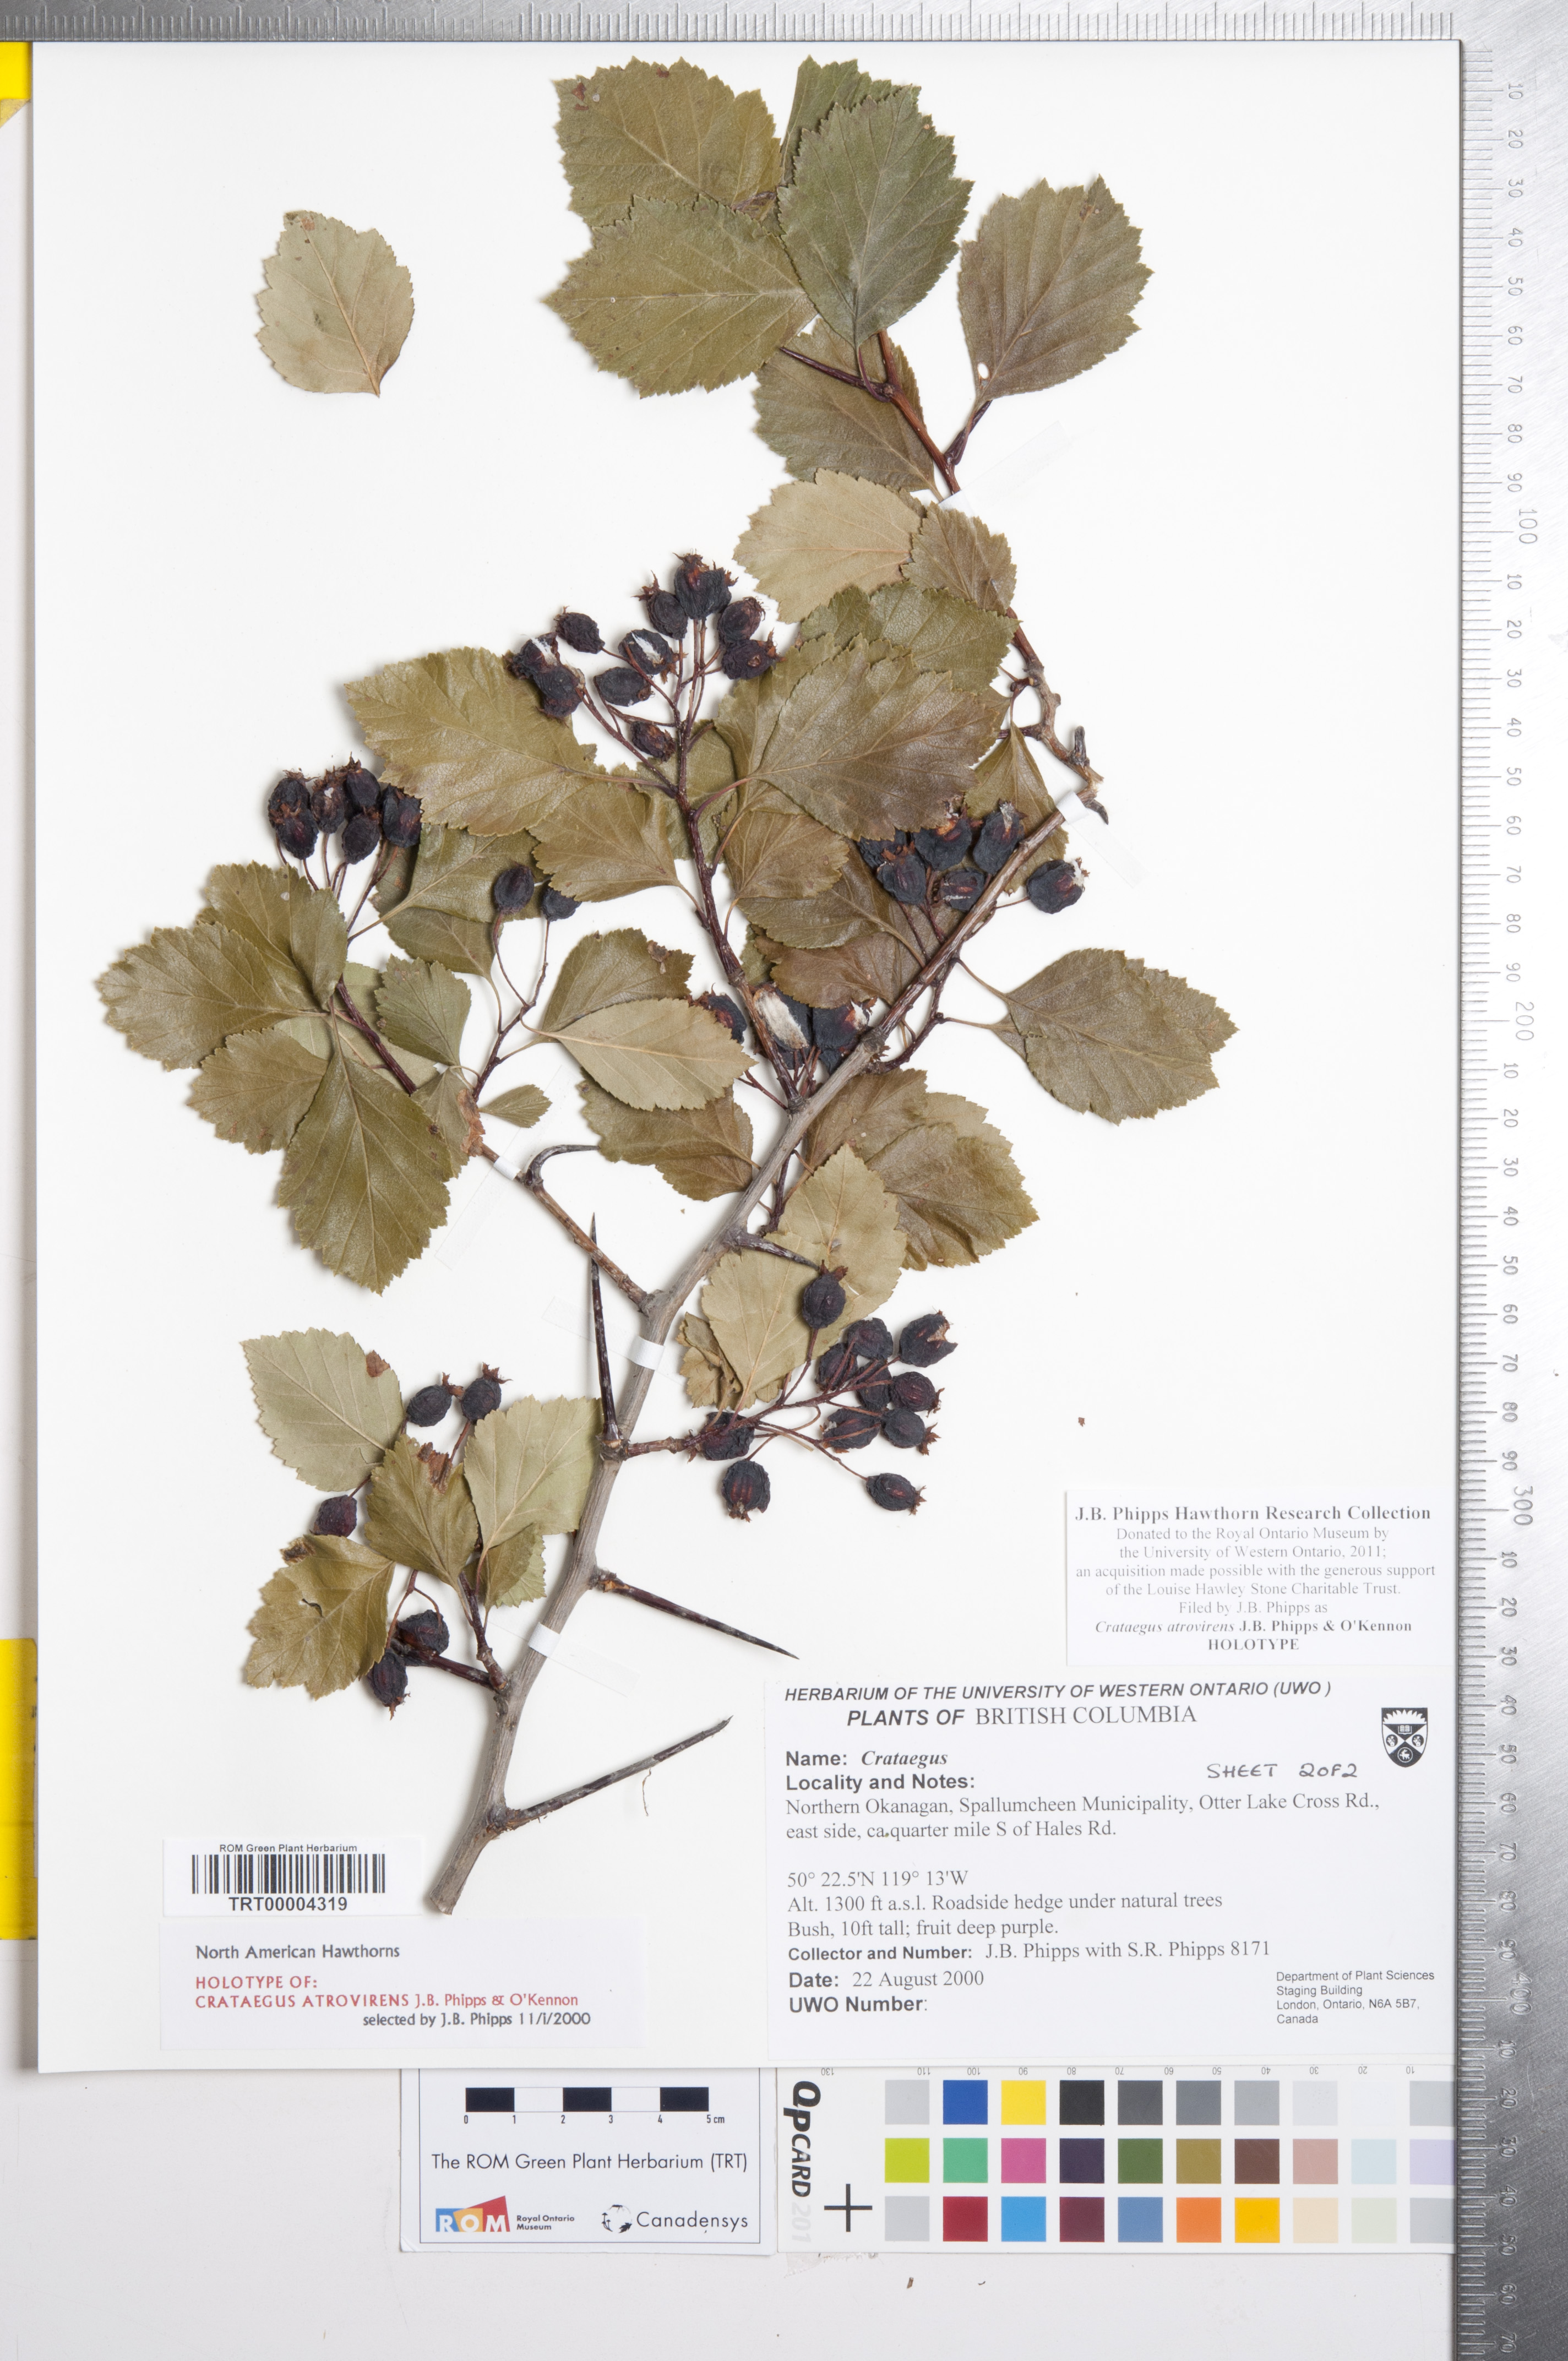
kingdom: Plantae
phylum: Tracheophyta
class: Magnoliopsida
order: Rosales
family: Rosaceae
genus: Crataegus
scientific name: Crataegus atrovirens
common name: Dark green hawthorn
